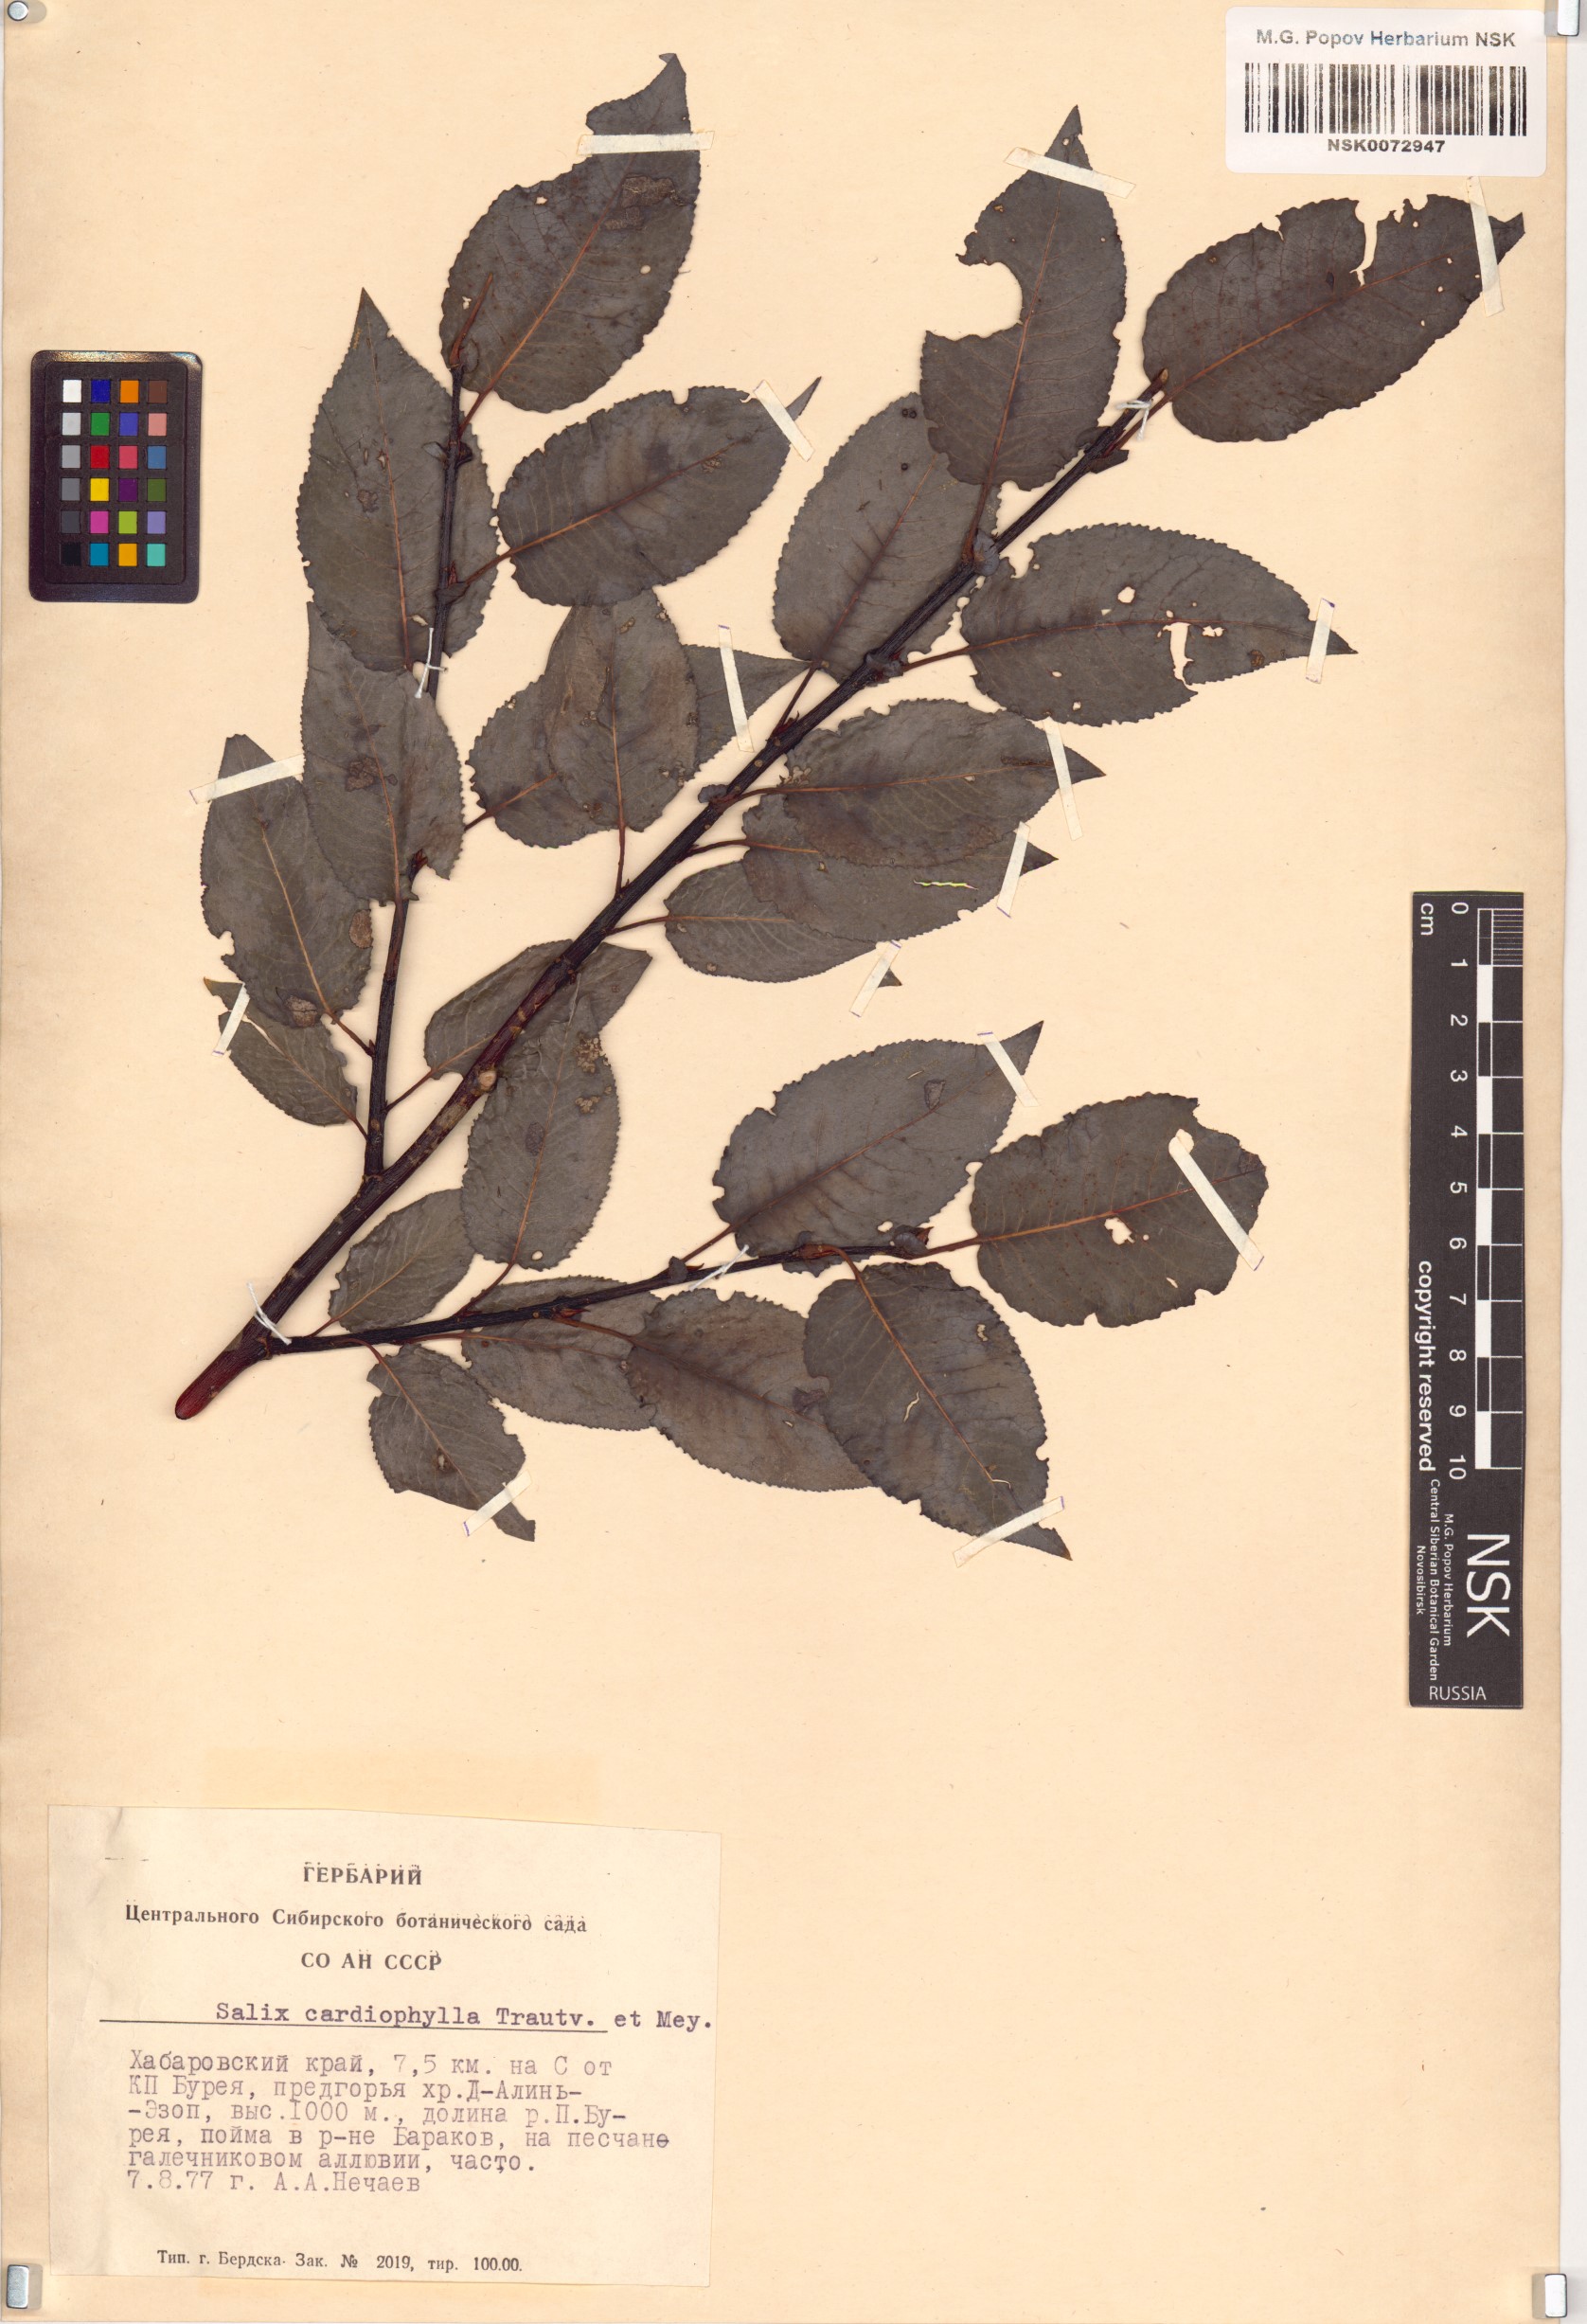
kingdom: Plantae
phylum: Tracheophyta
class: Magnoliopsida
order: Malpighiales
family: Salicaceae
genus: Chosenia
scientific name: Chosenia cardiophylla
